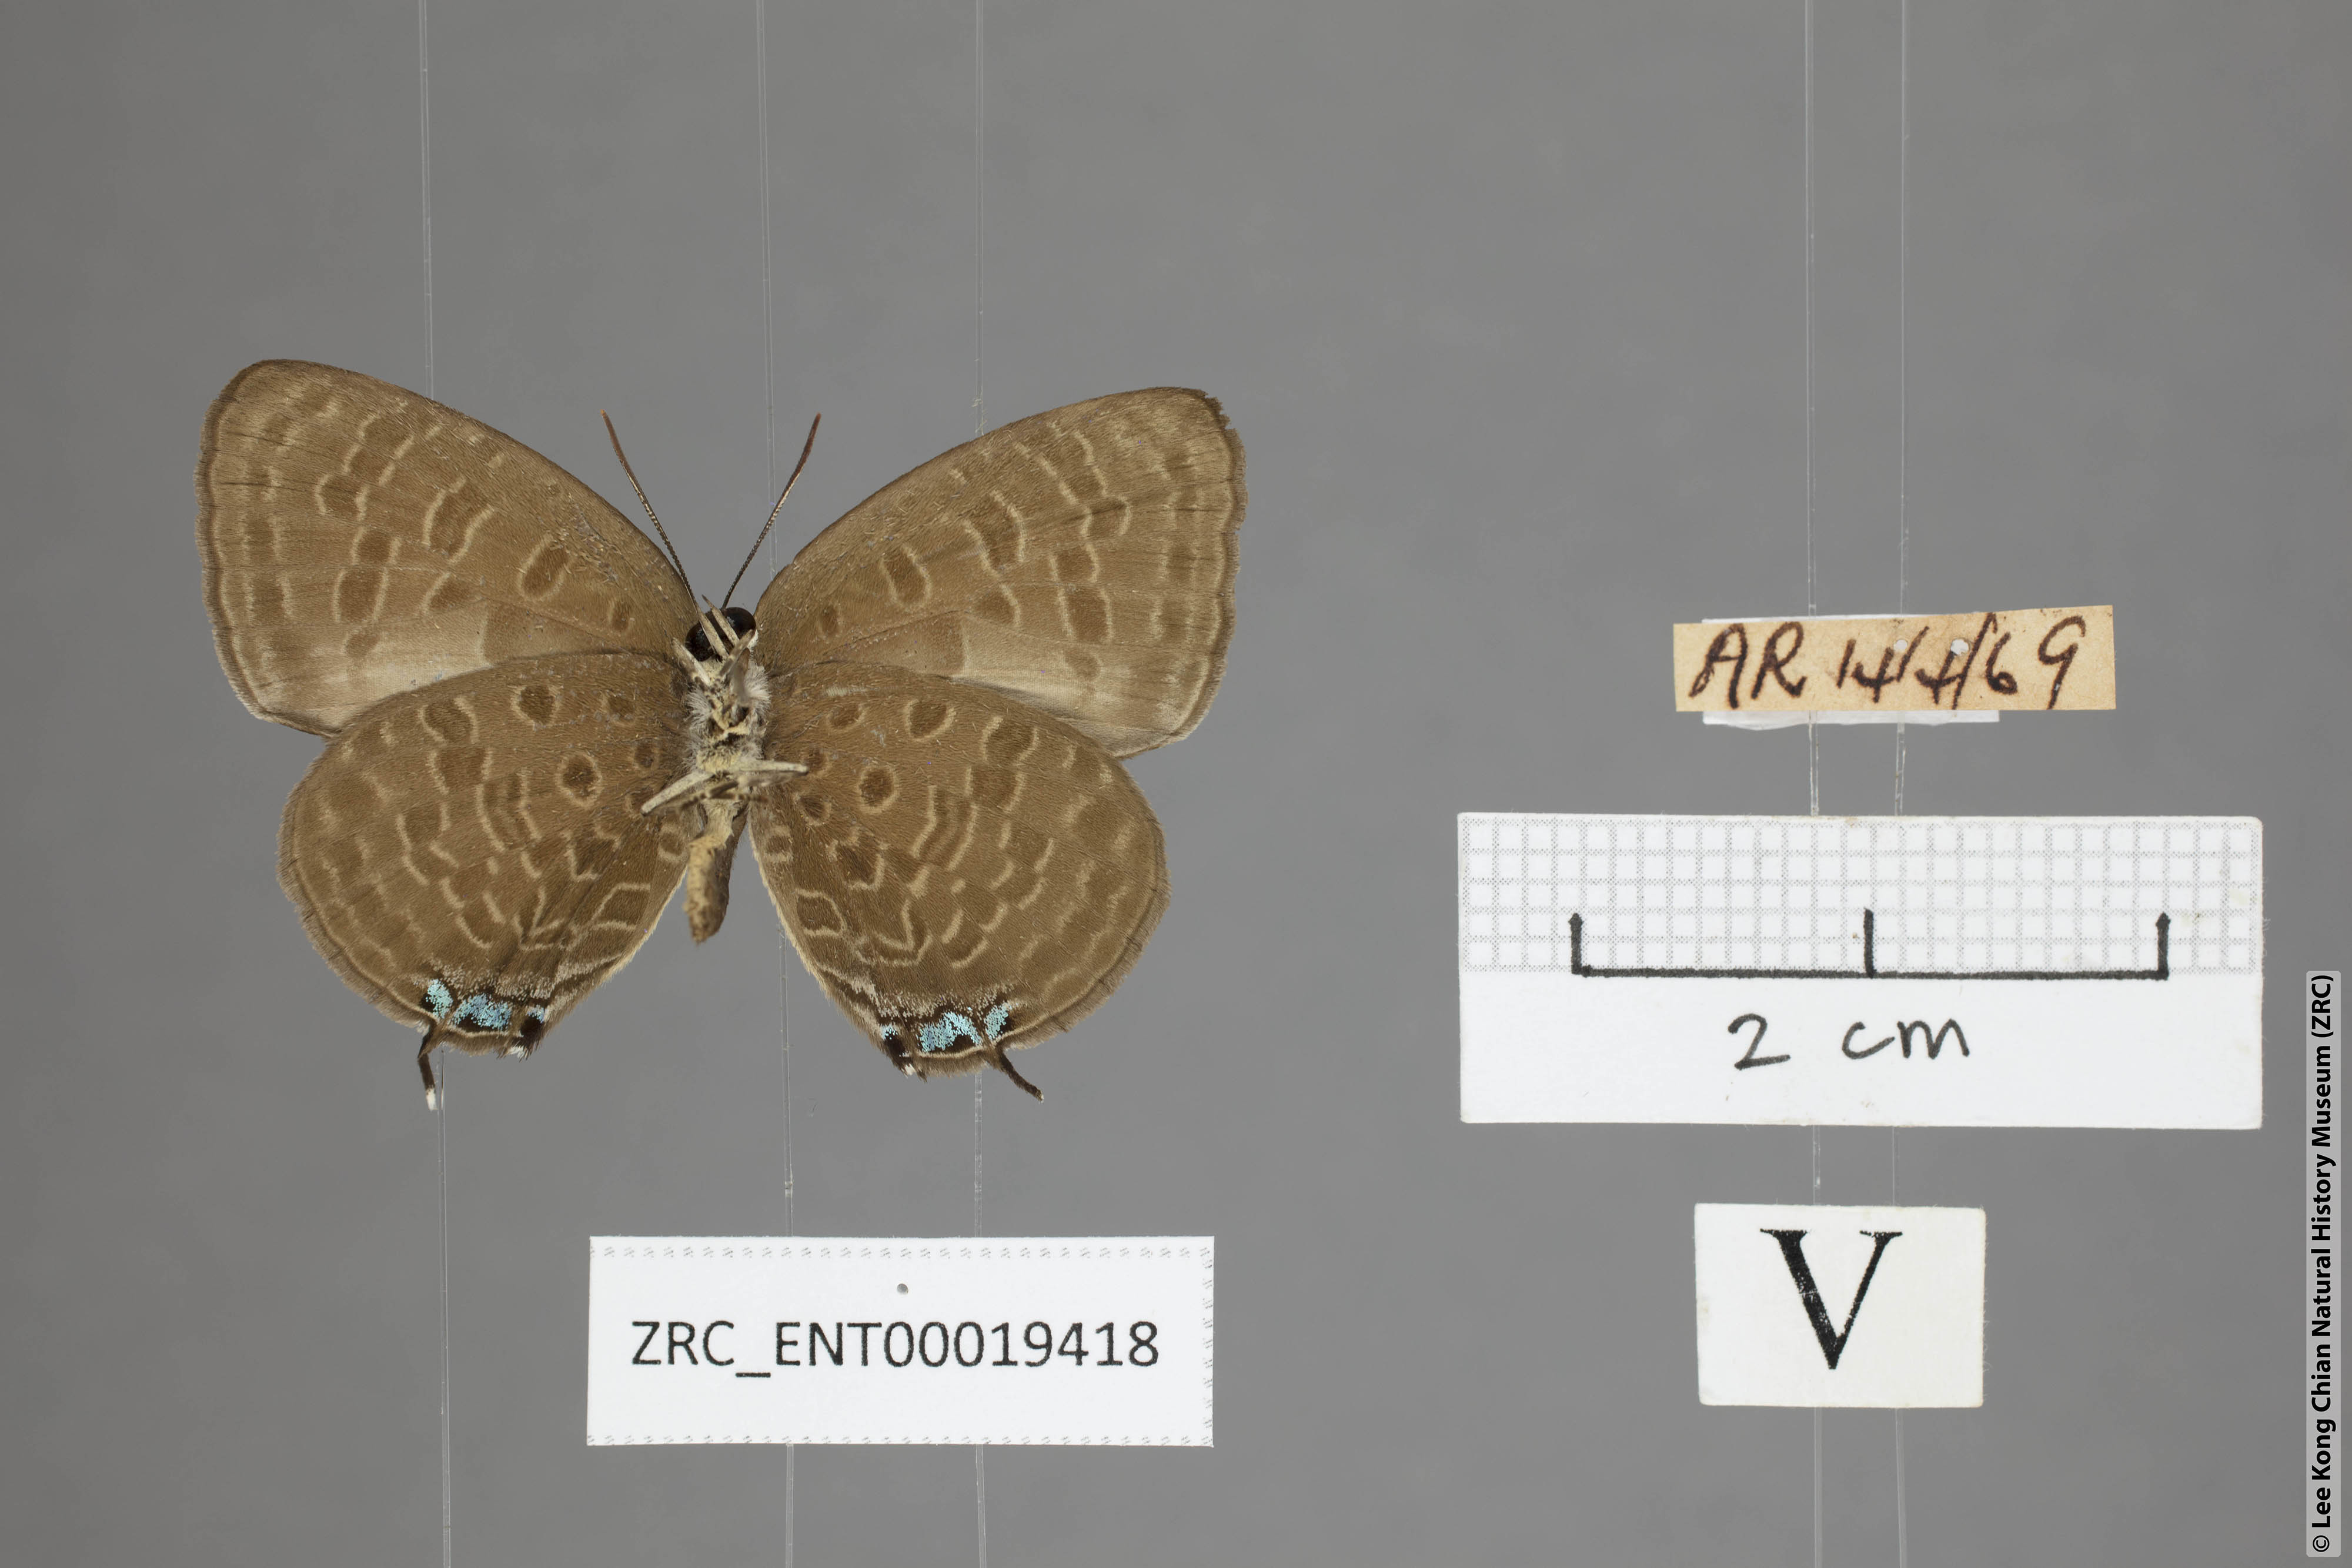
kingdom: Animalia
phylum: Arthropoda
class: Insecta
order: Lepidoptera
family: Lycaenidae
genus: Arhopala
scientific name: Arhopala elopura
